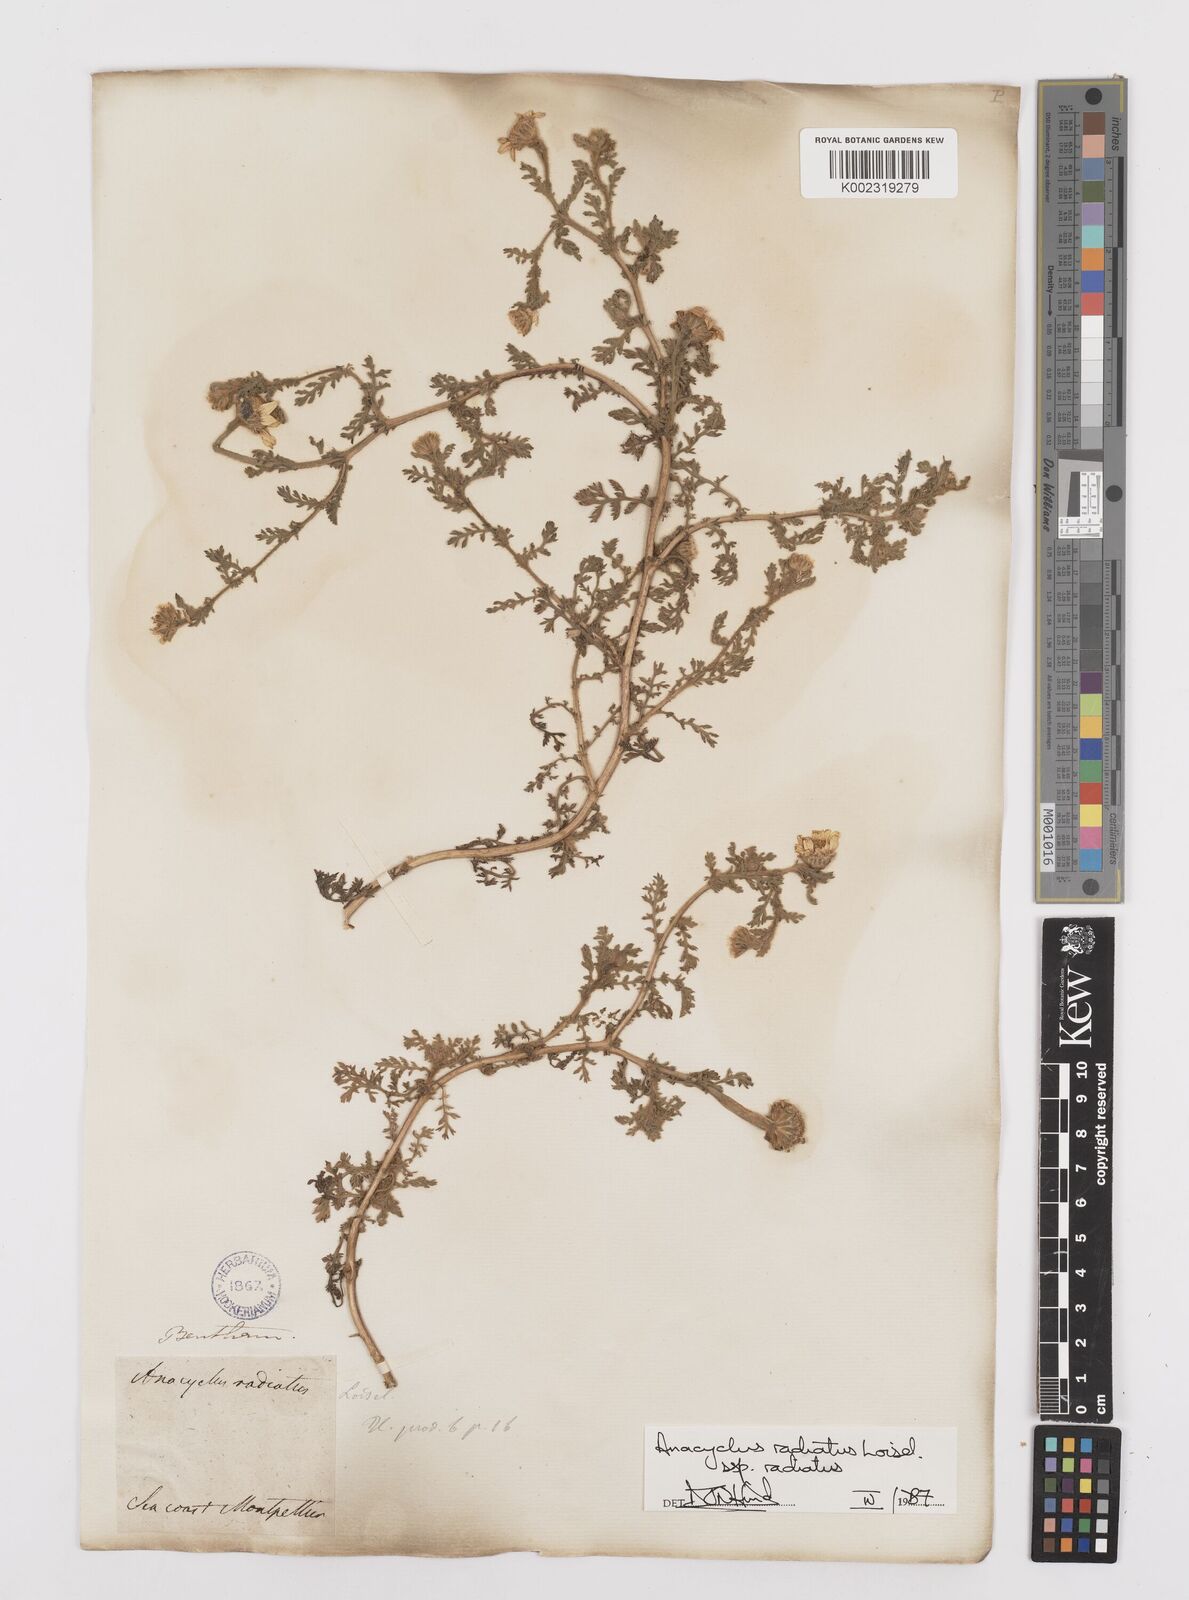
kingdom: Plantae
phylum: Tracheophyta
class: Magnoliopsida
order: Asterales
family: Asteraceae
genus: Anacyclus
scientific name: Anacyclus radiatus
